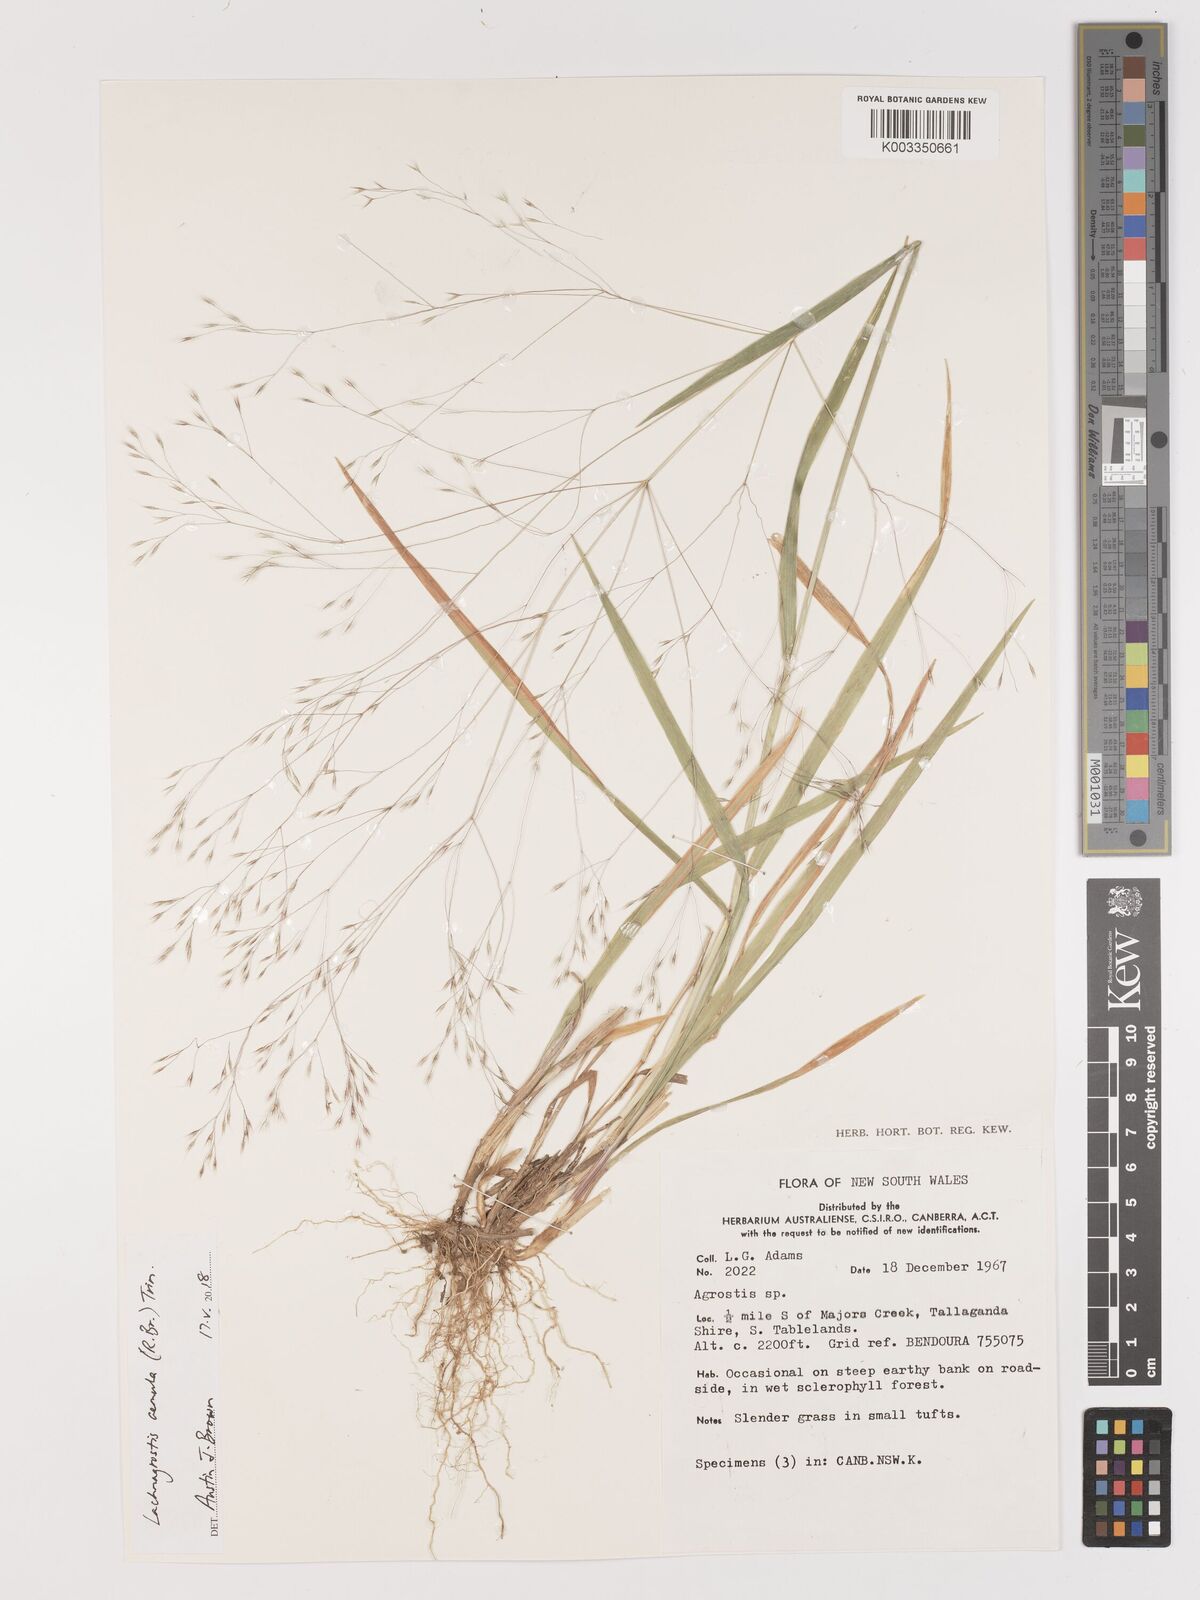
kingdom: Plantae
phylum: Tracheophyta
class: Liliopsida
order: Poales
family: Poaceae
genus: Lachnagrostis
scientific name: Lachnagrostis aemula
